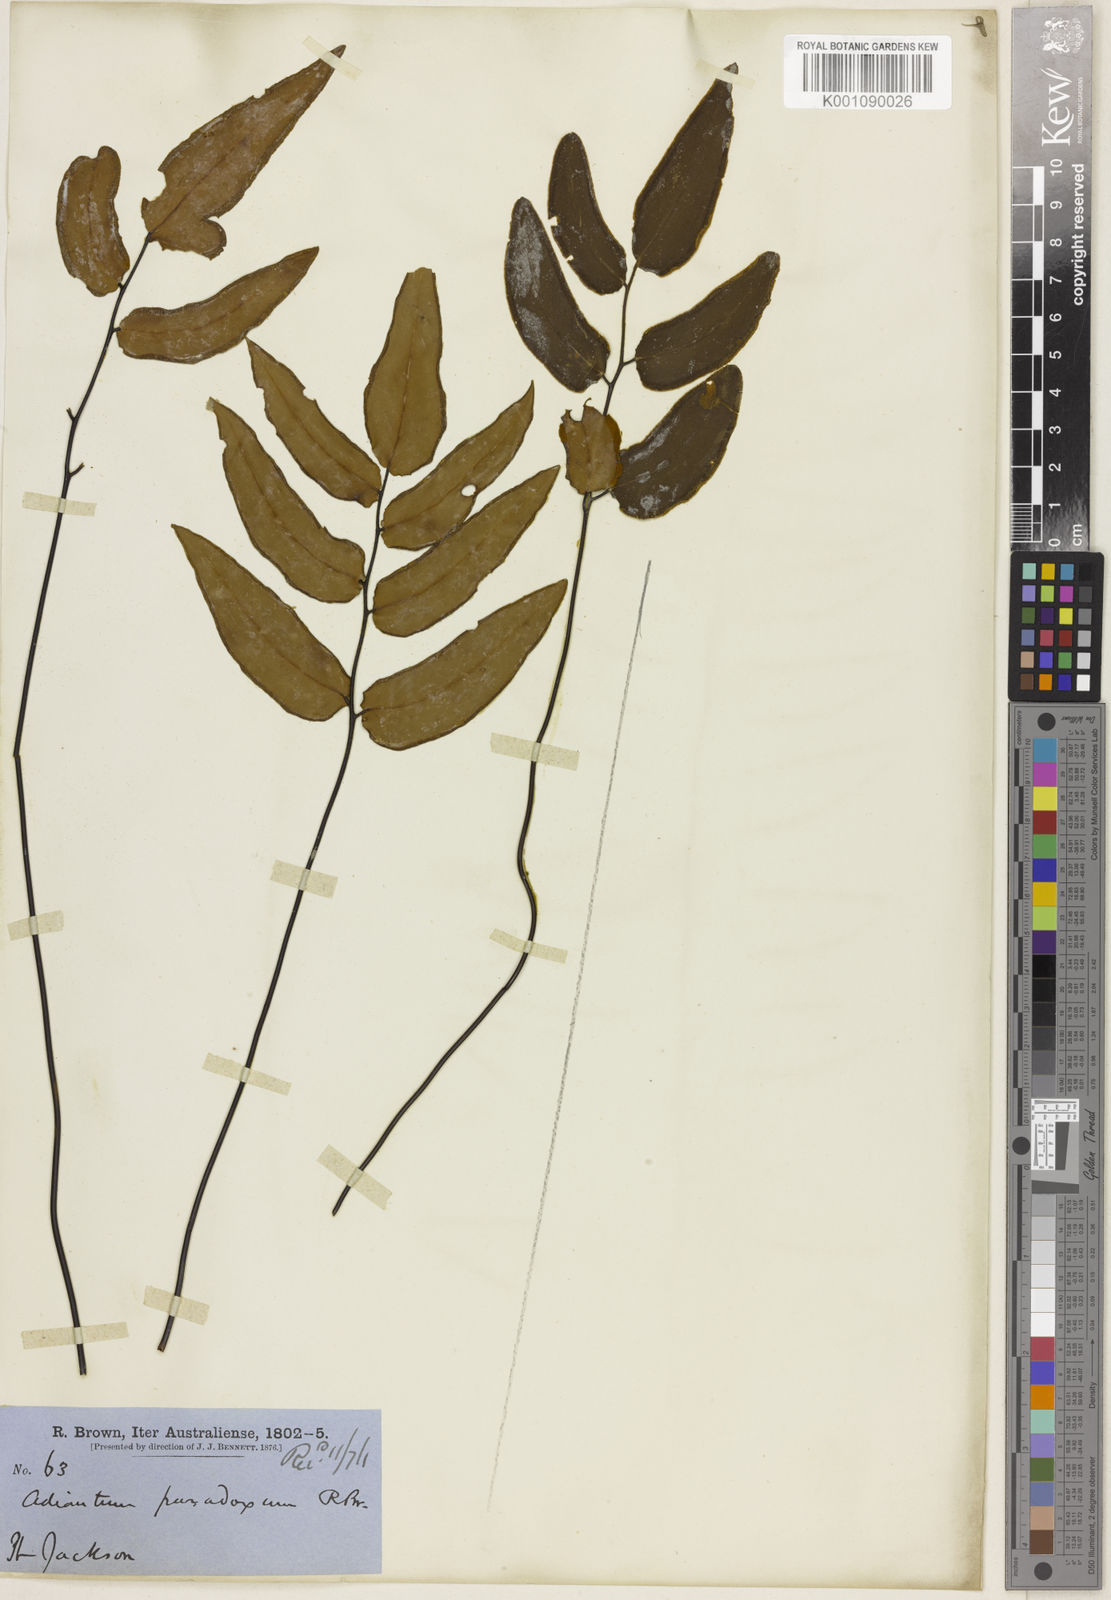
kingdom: Plantae
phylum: Tracheophyta
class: Polypodiopsida
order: Polypodiales
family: Pteridaceae
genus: Pellaea
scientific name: Pellaea paradoxa
